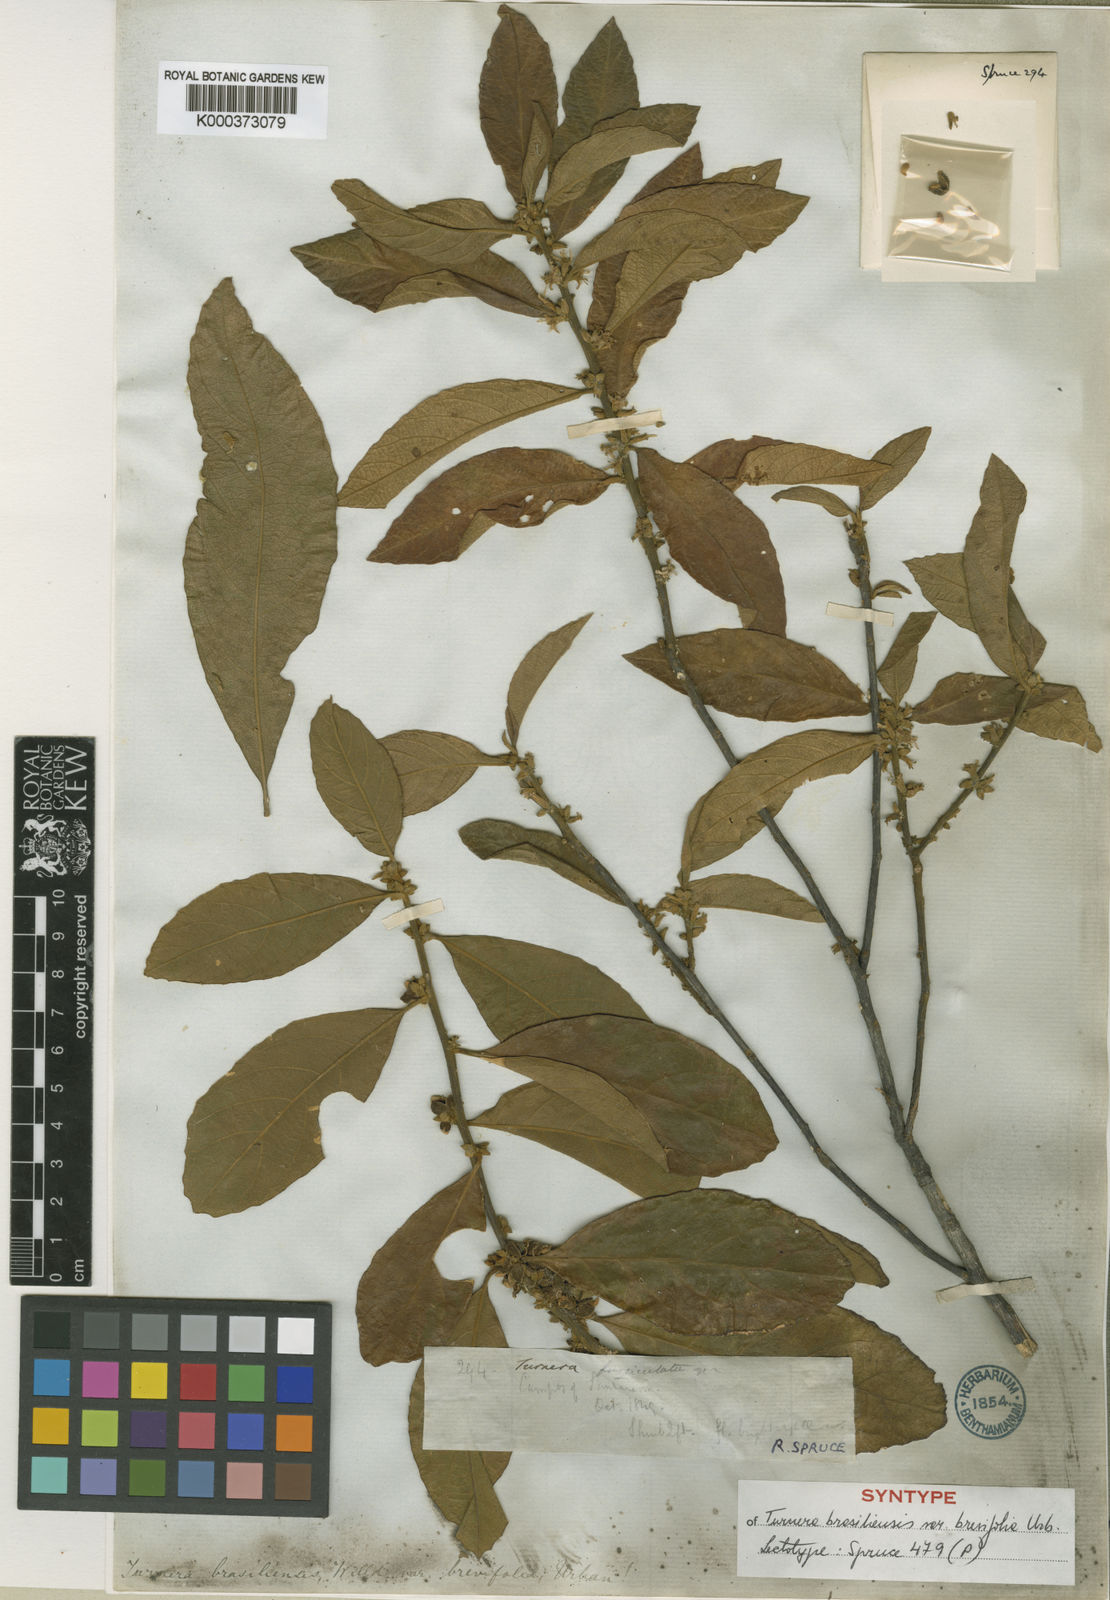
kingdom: Plantae
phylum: Tracheophyta
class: Magnoliopsida
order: Malpighiales
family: Turneraceae
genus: Turnera
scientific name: Turnera brasiliensis
